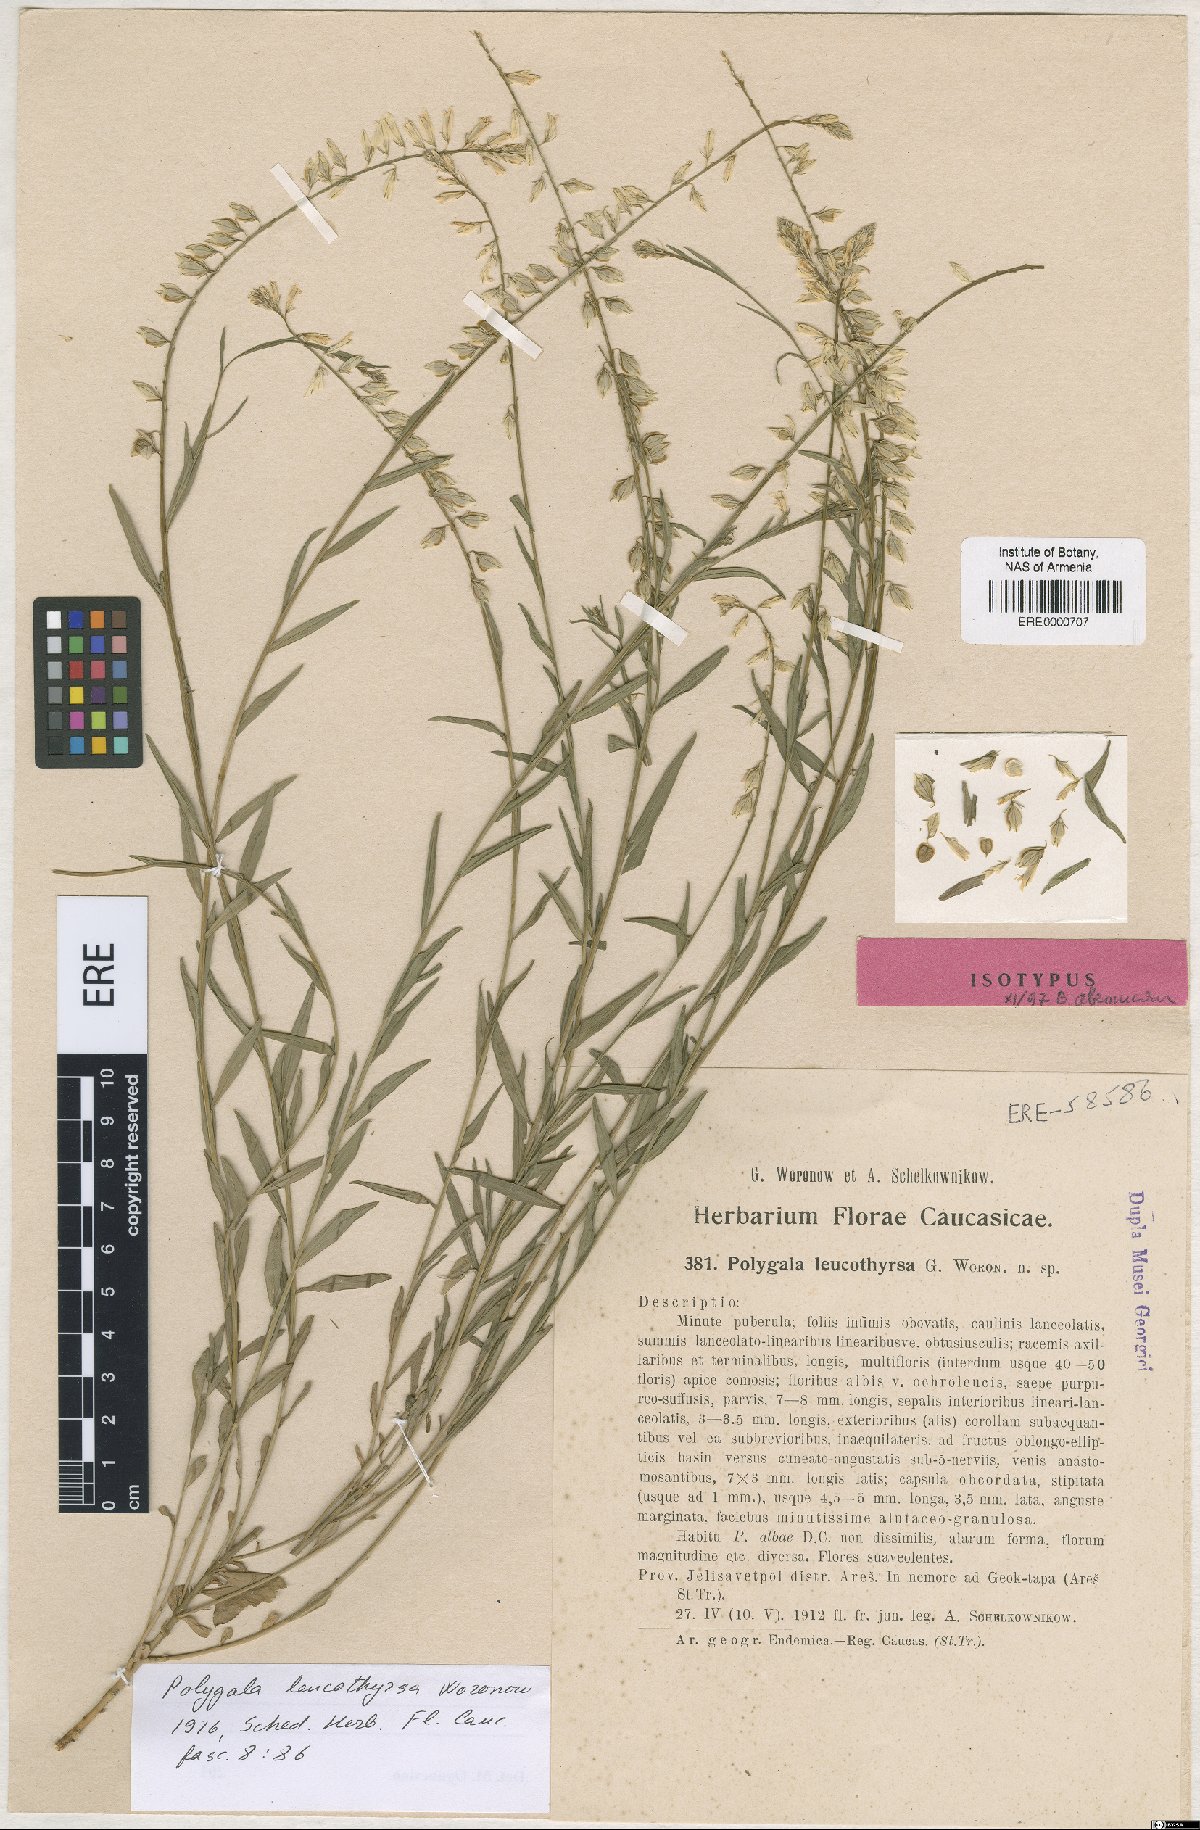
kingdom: Plantae
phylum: Tracheophyta
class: Magnoliopsida
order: Fabales
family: Polygalaceae
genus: Polygala
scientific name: Polygala leucothyrsa
